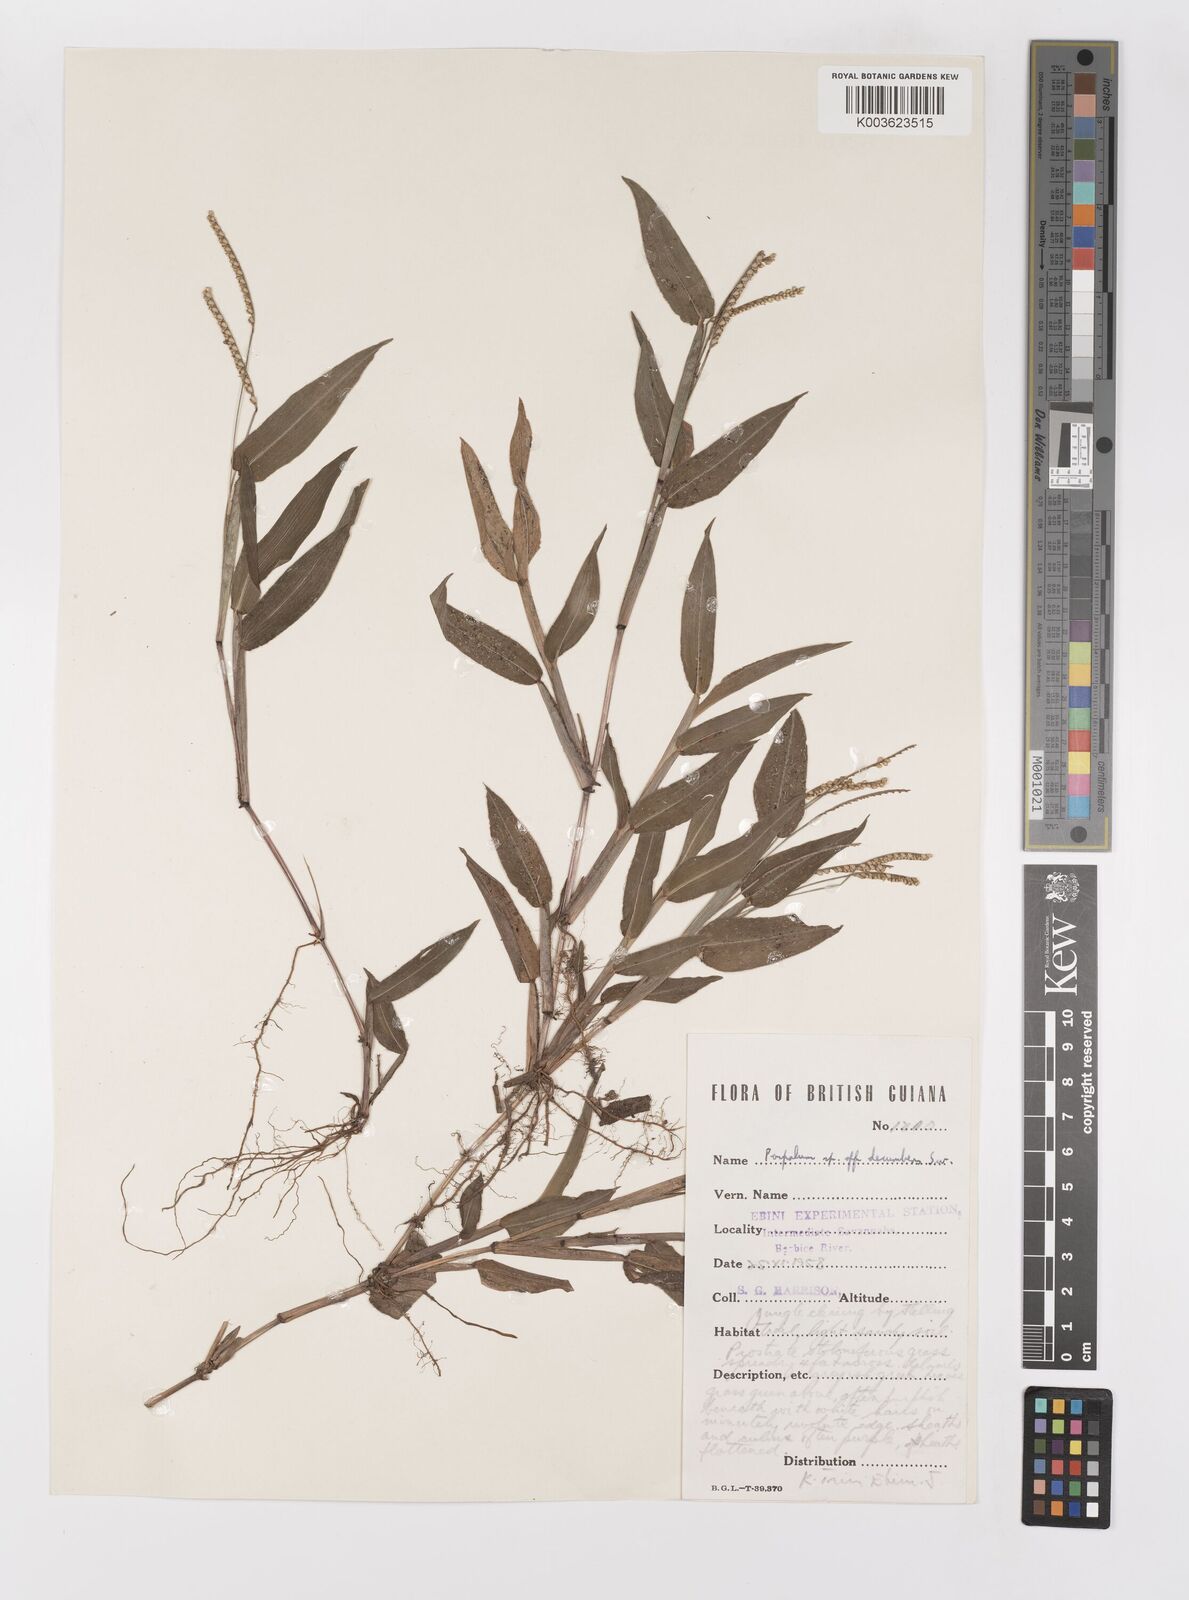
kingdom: Plantae
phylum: Tracheophyta
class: Liliopsida
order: Poales
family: Poaceae
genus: Paspalum
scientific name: Paspalum decumbens
